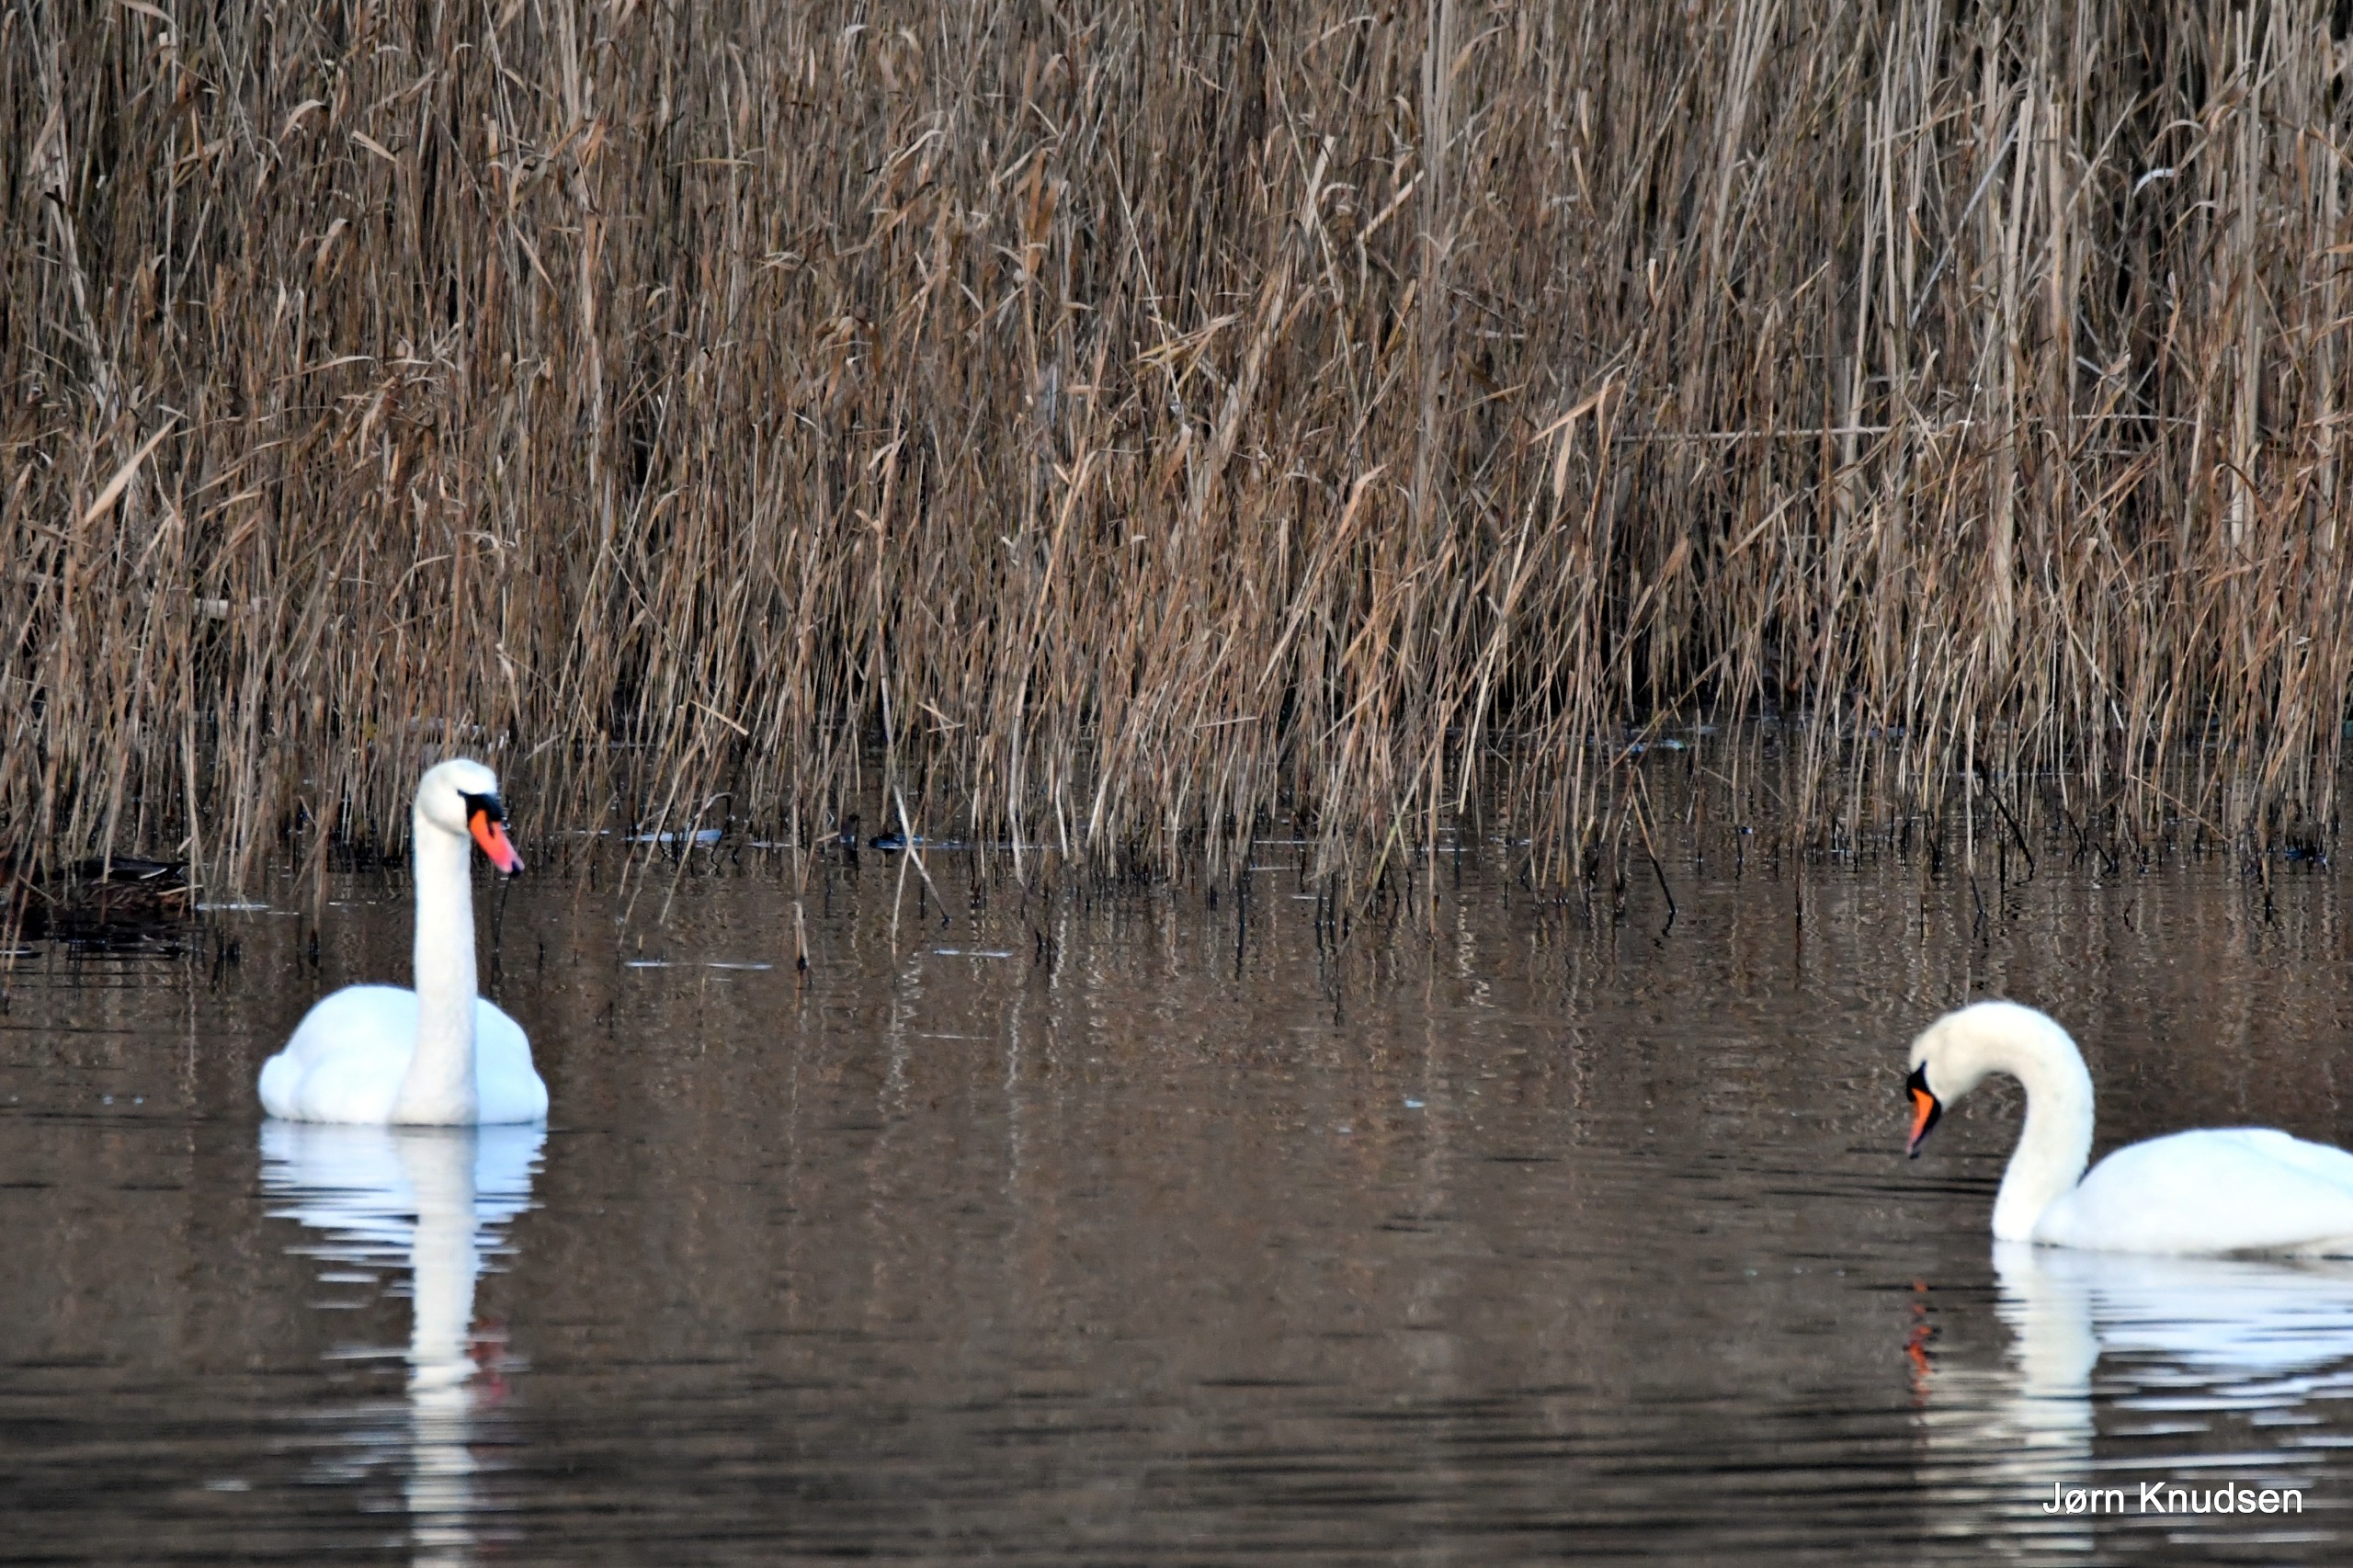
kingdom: Animalia
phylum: Chordata
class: Aves
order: Anseriformes
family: Anatidae
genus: Cygnus
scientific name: Cygnus olor
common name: Knopsvane
